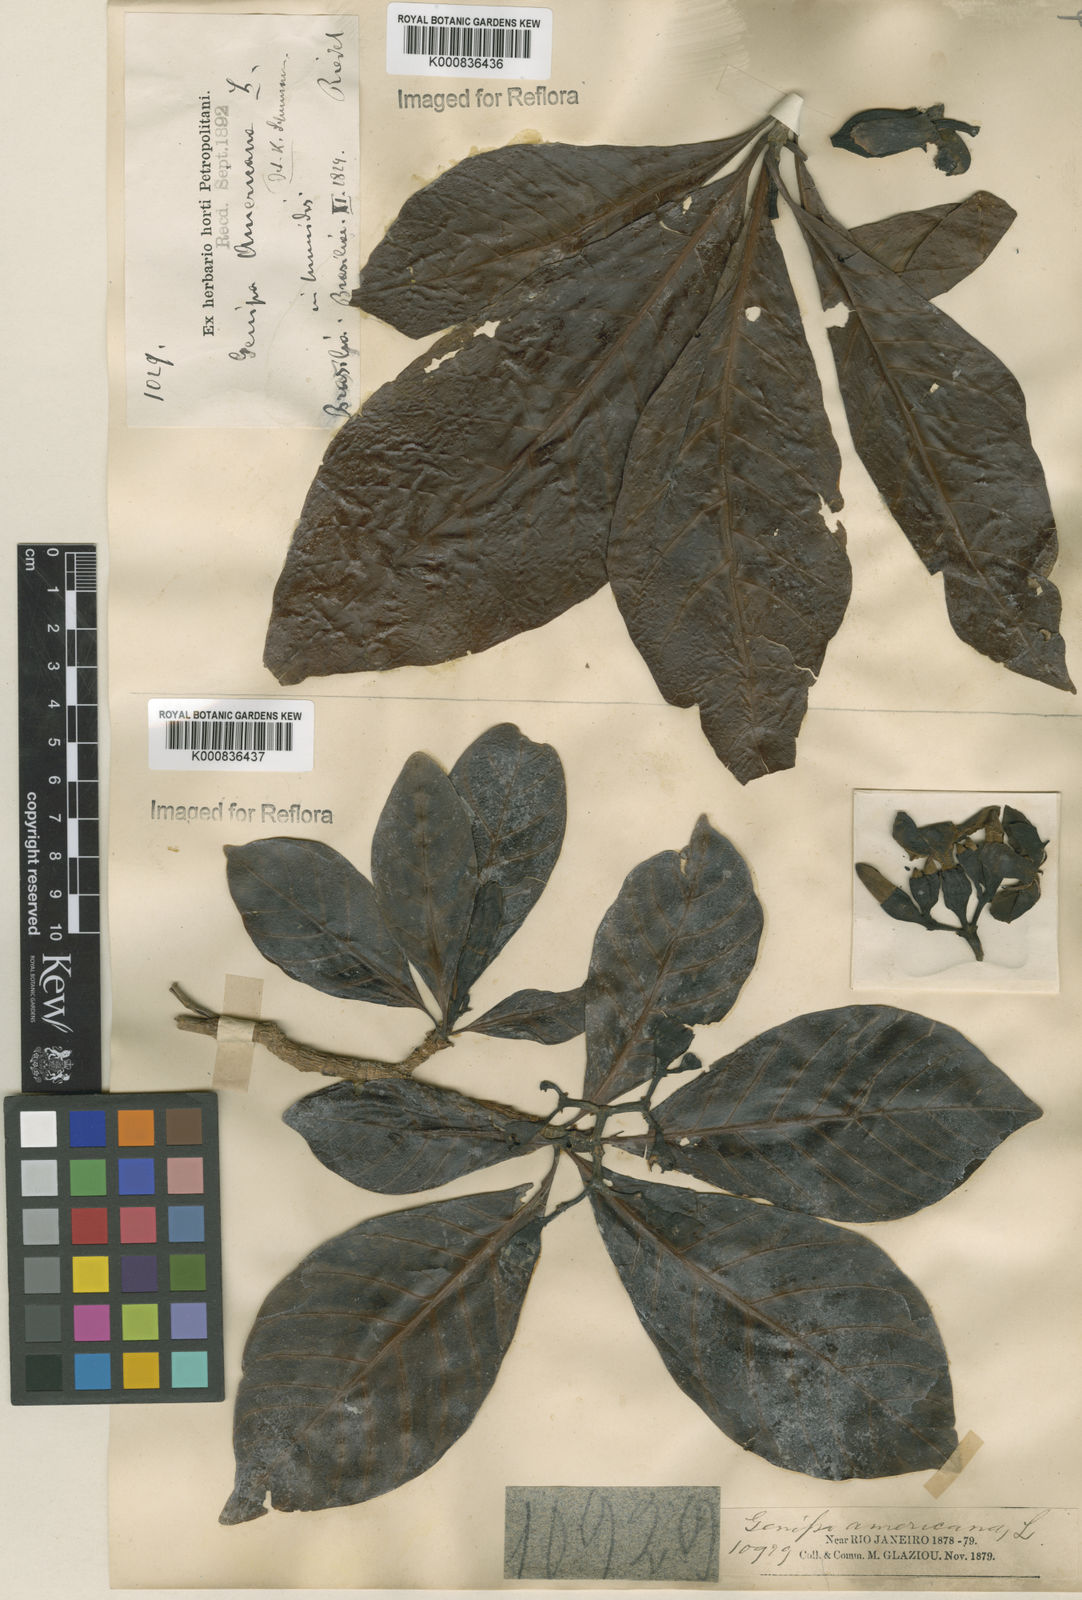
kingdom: Plantae
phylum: Tracheophyta
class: Magnoliopsida
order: Gentianales
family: Rubiaceae
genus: Genipa
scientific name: Genipa americana
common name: Genipap
